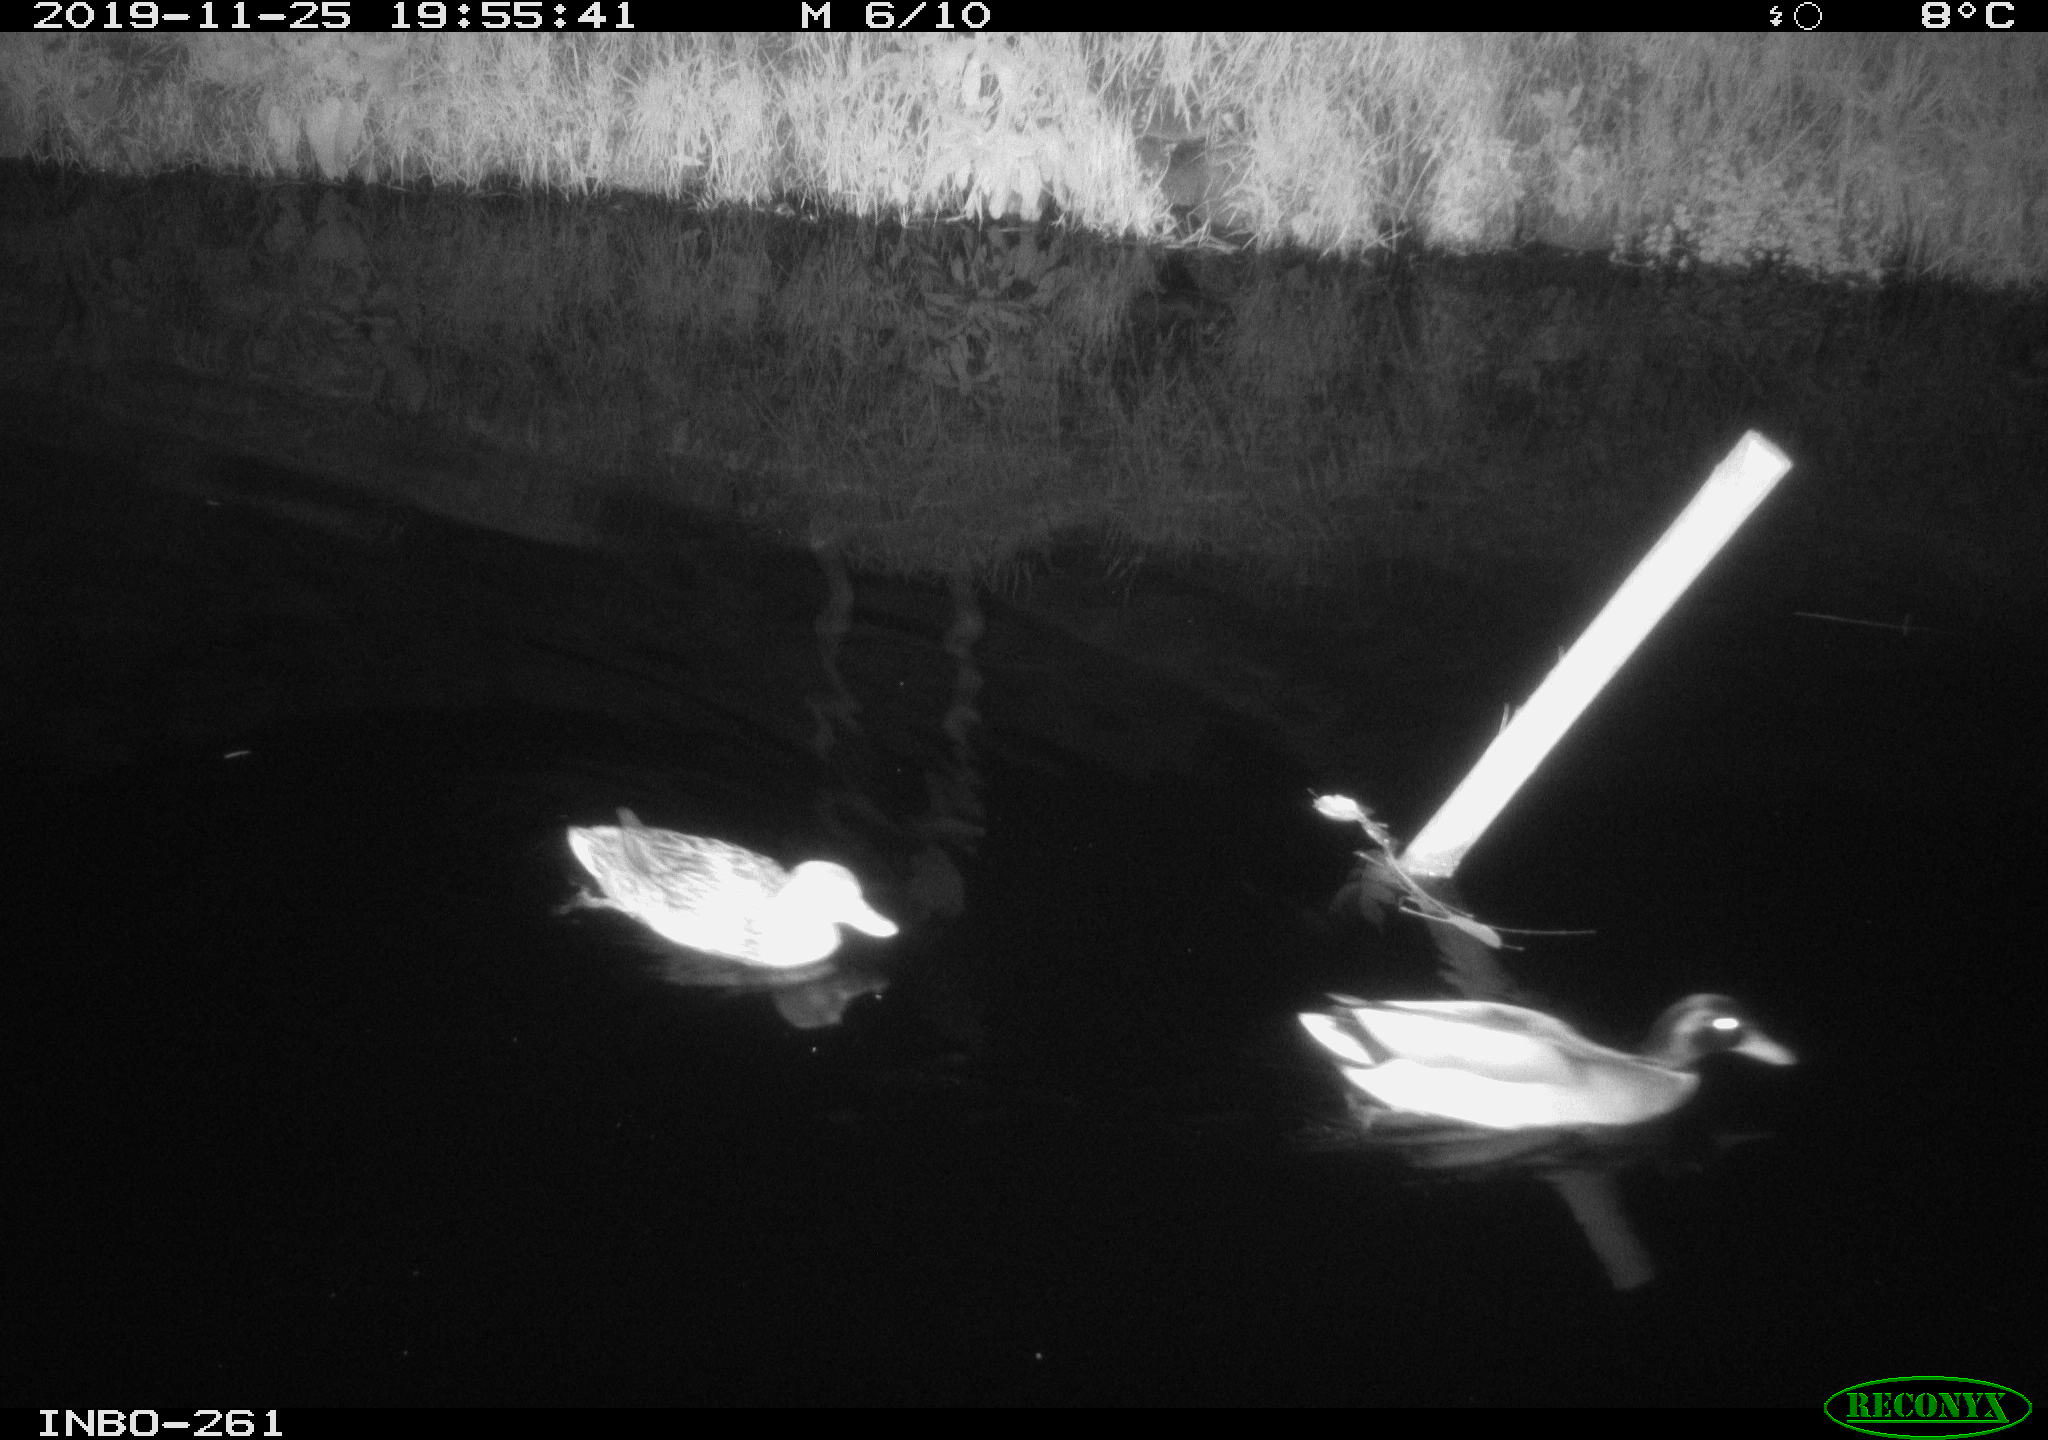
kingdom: Animalia
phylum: Chordata
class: Aves
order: Anseriformes
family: Anatidae
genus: Anas
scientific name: Anas platyrhynchos
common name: Mallard
